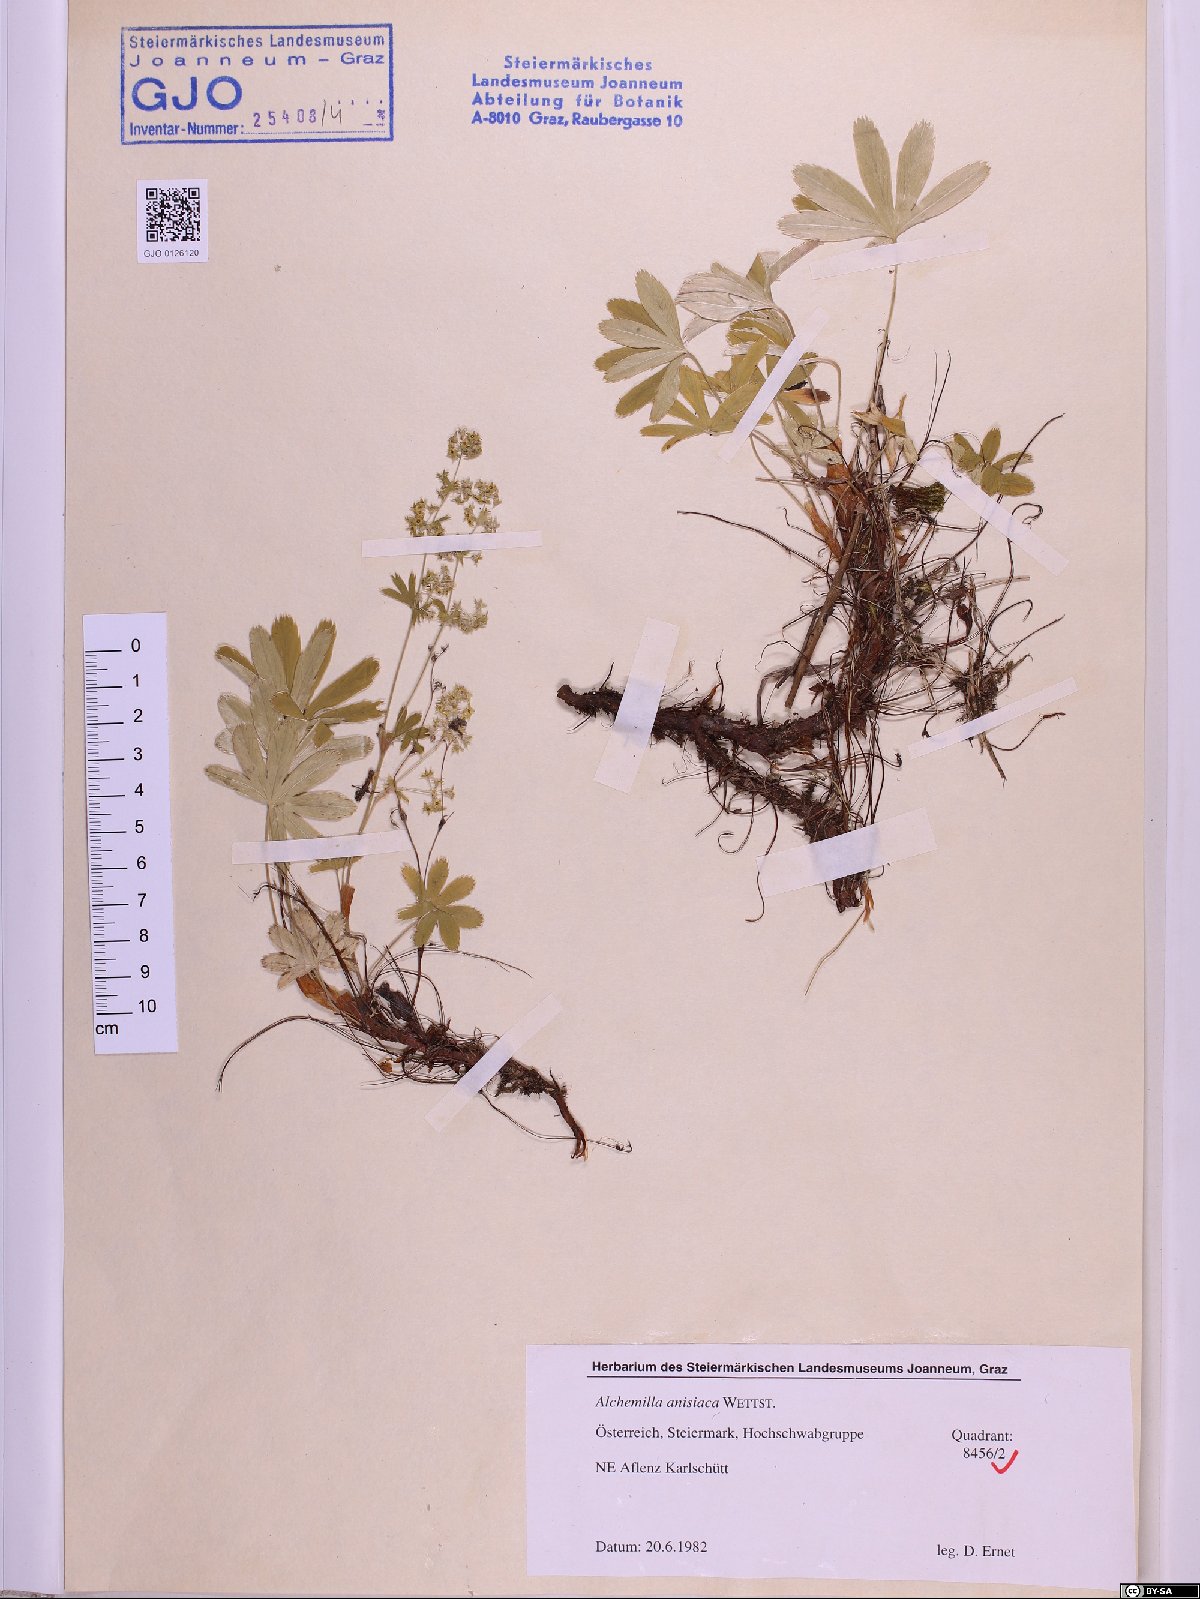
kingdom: Plantae
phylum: Tracheophyta
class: Magnoliopsida
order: Rosales
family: Rosaceae
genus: Alchemilla
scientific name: Alchemilla anisiaca
